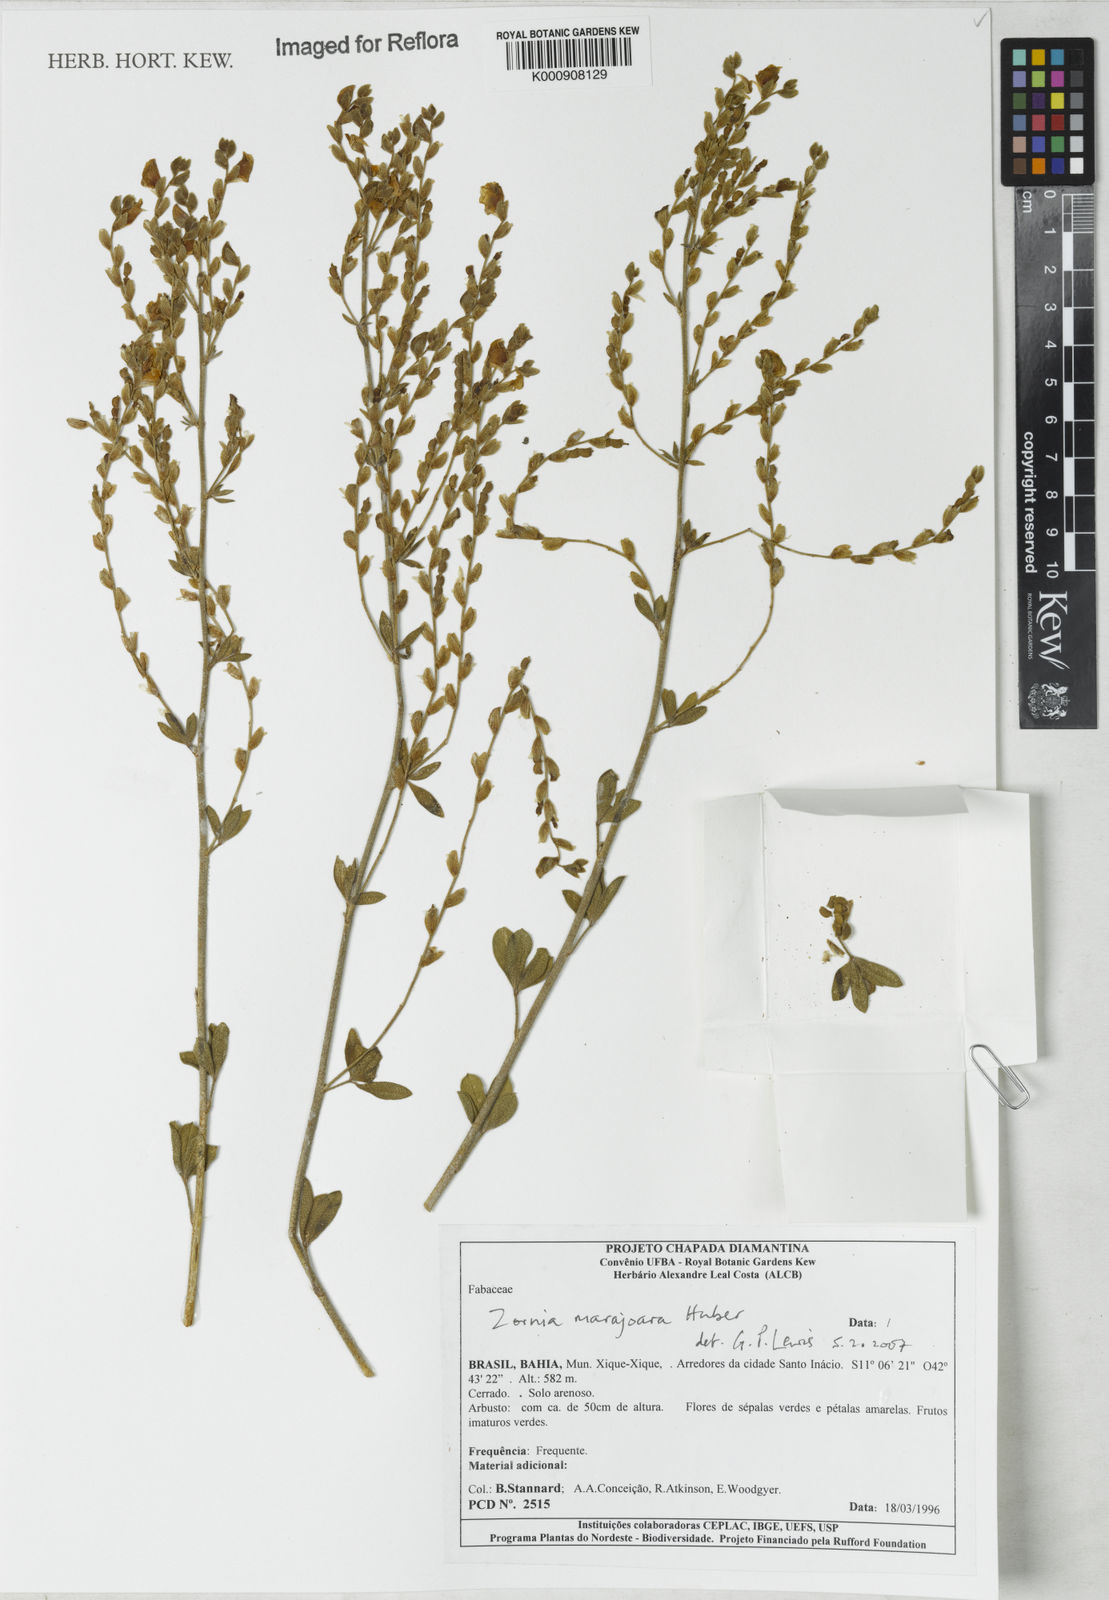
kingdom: Plantae
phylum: Tracheophyta
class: Magnoliopsida
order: Fabales
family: Fabaceae
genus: Zornia
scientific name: Zornia guanipensis
